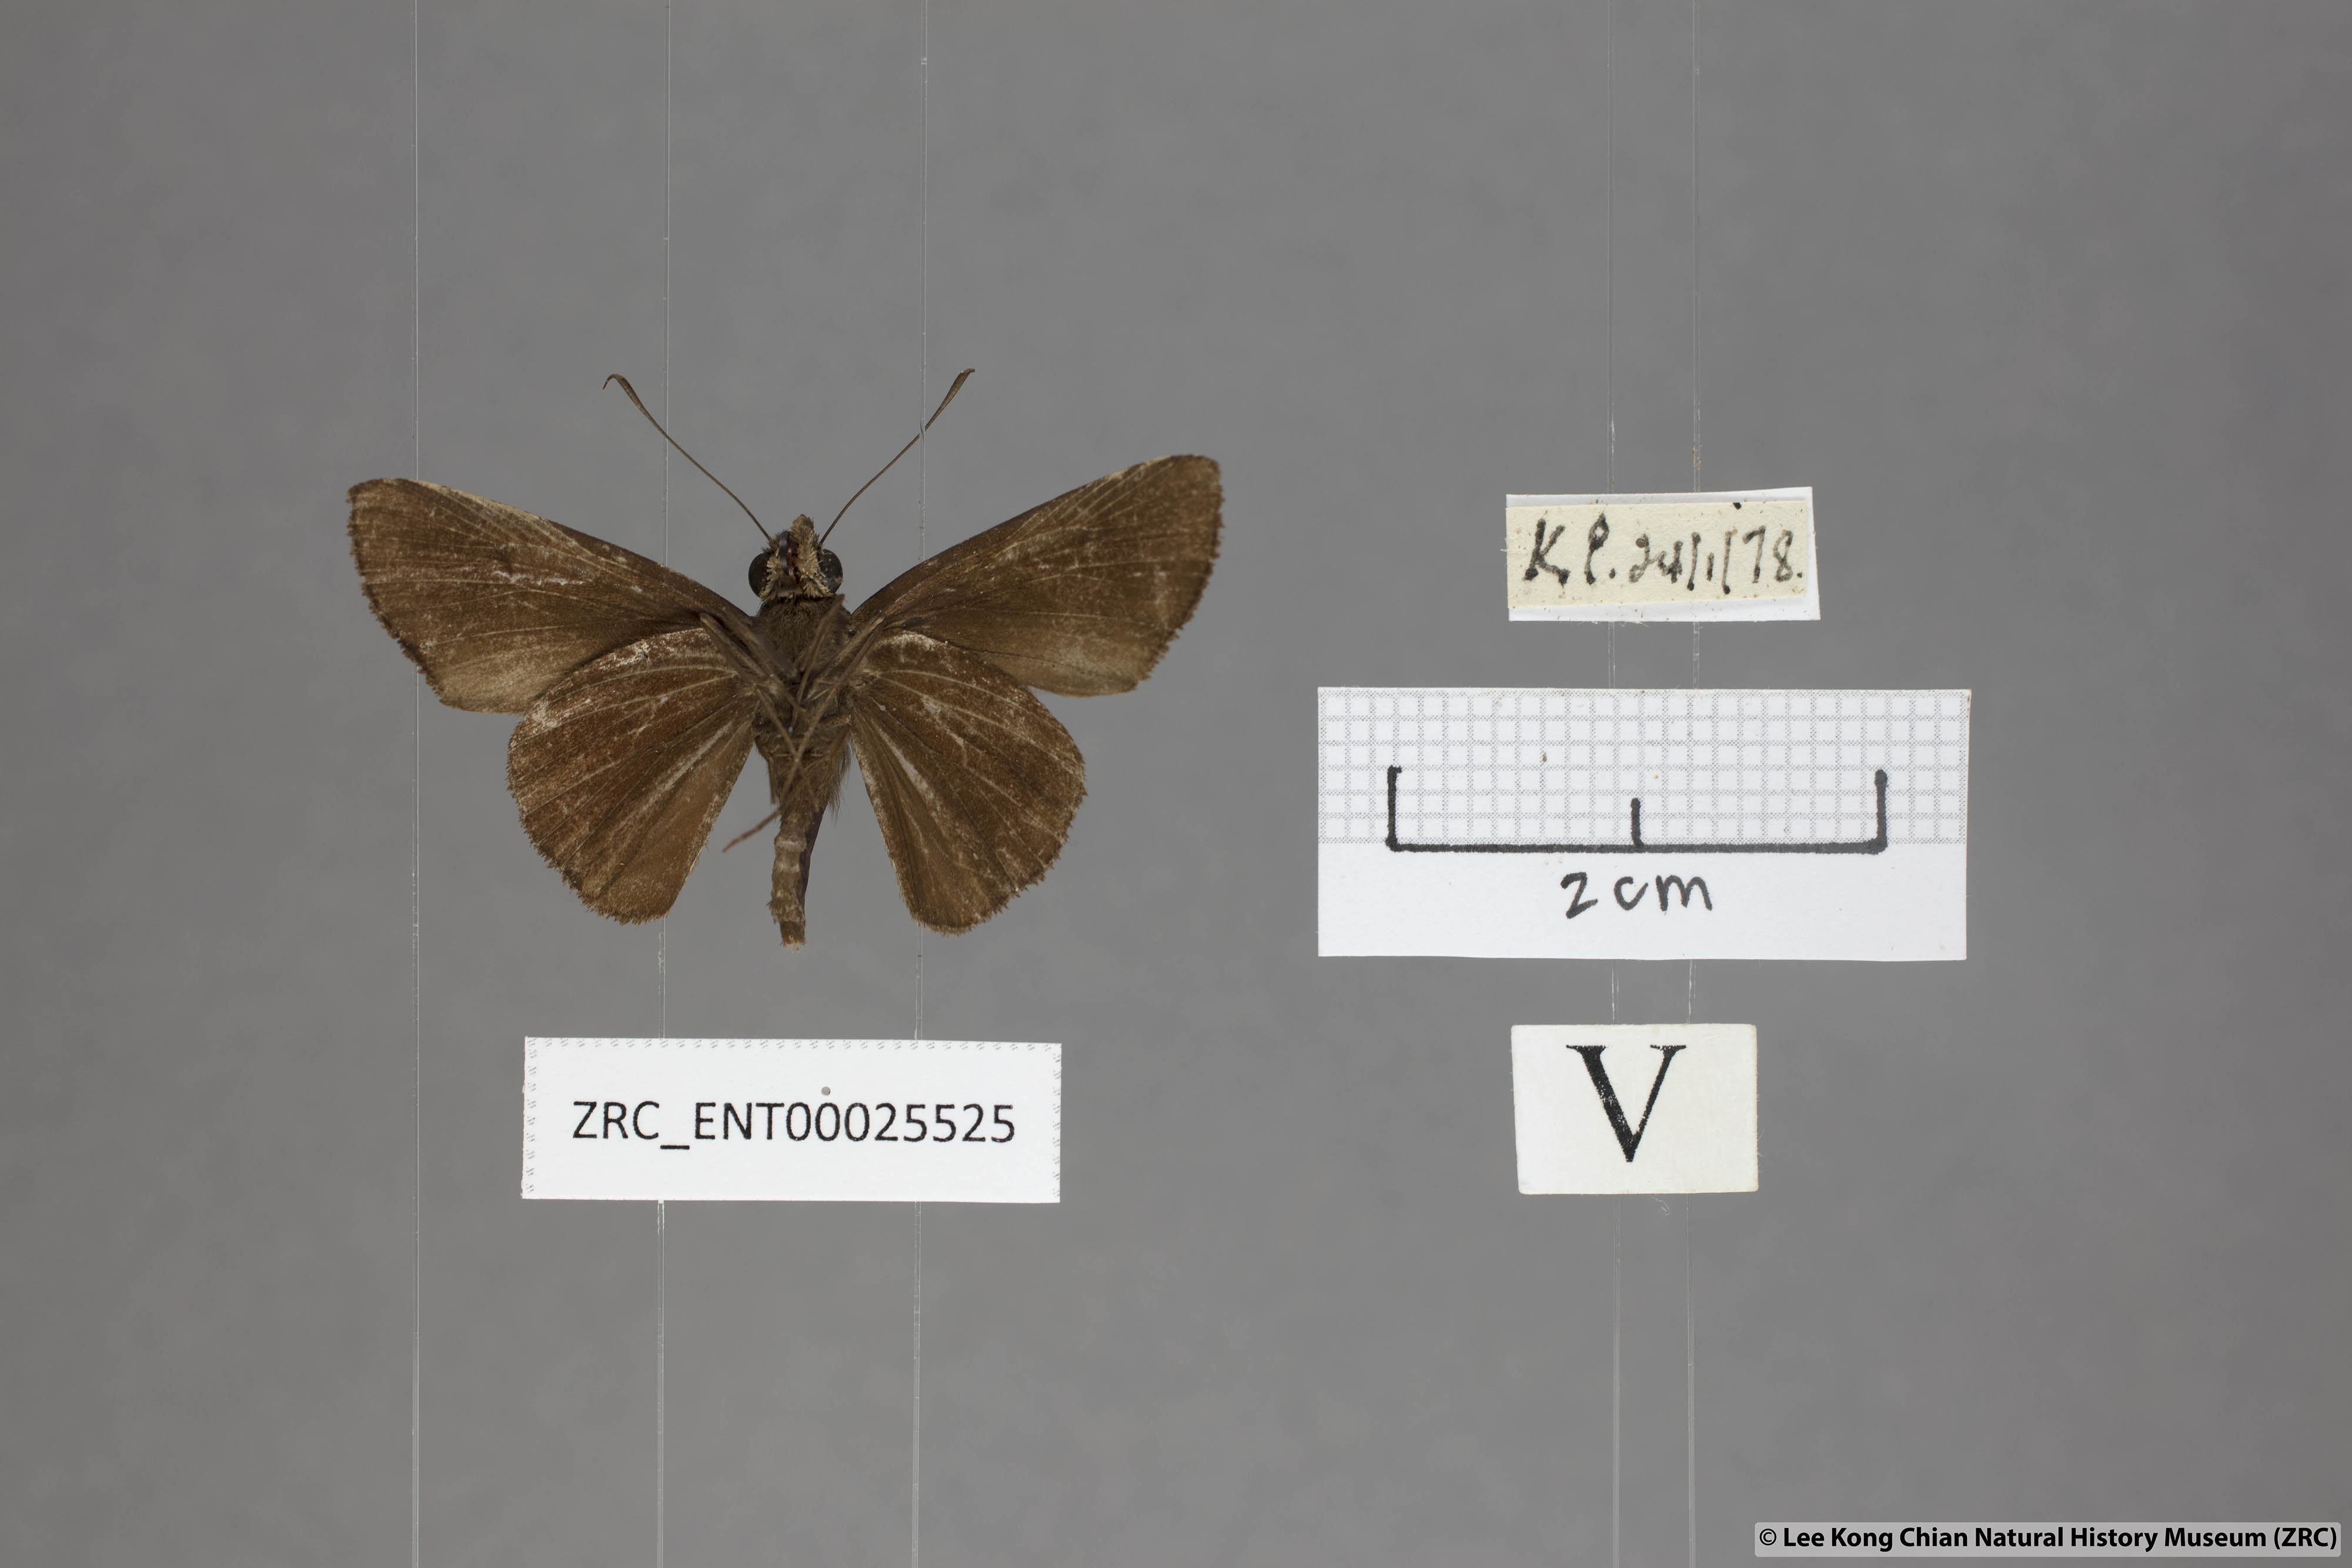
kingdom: Animalia
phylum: Arthropoda
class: Insecta
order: Lepidoptera
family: Hesperiidae
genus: Quedara
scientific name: Quedara monteithi
